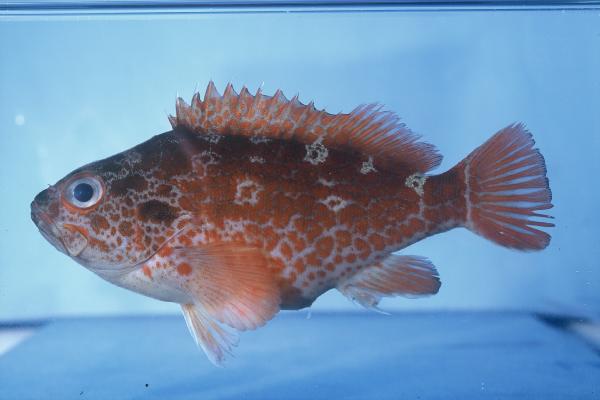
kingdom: Animalia
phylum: Chordata
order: Perciformes
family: Serranidae
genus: Acanthistius
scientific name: Acanthistius joanae
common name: Scalyjaw koester
